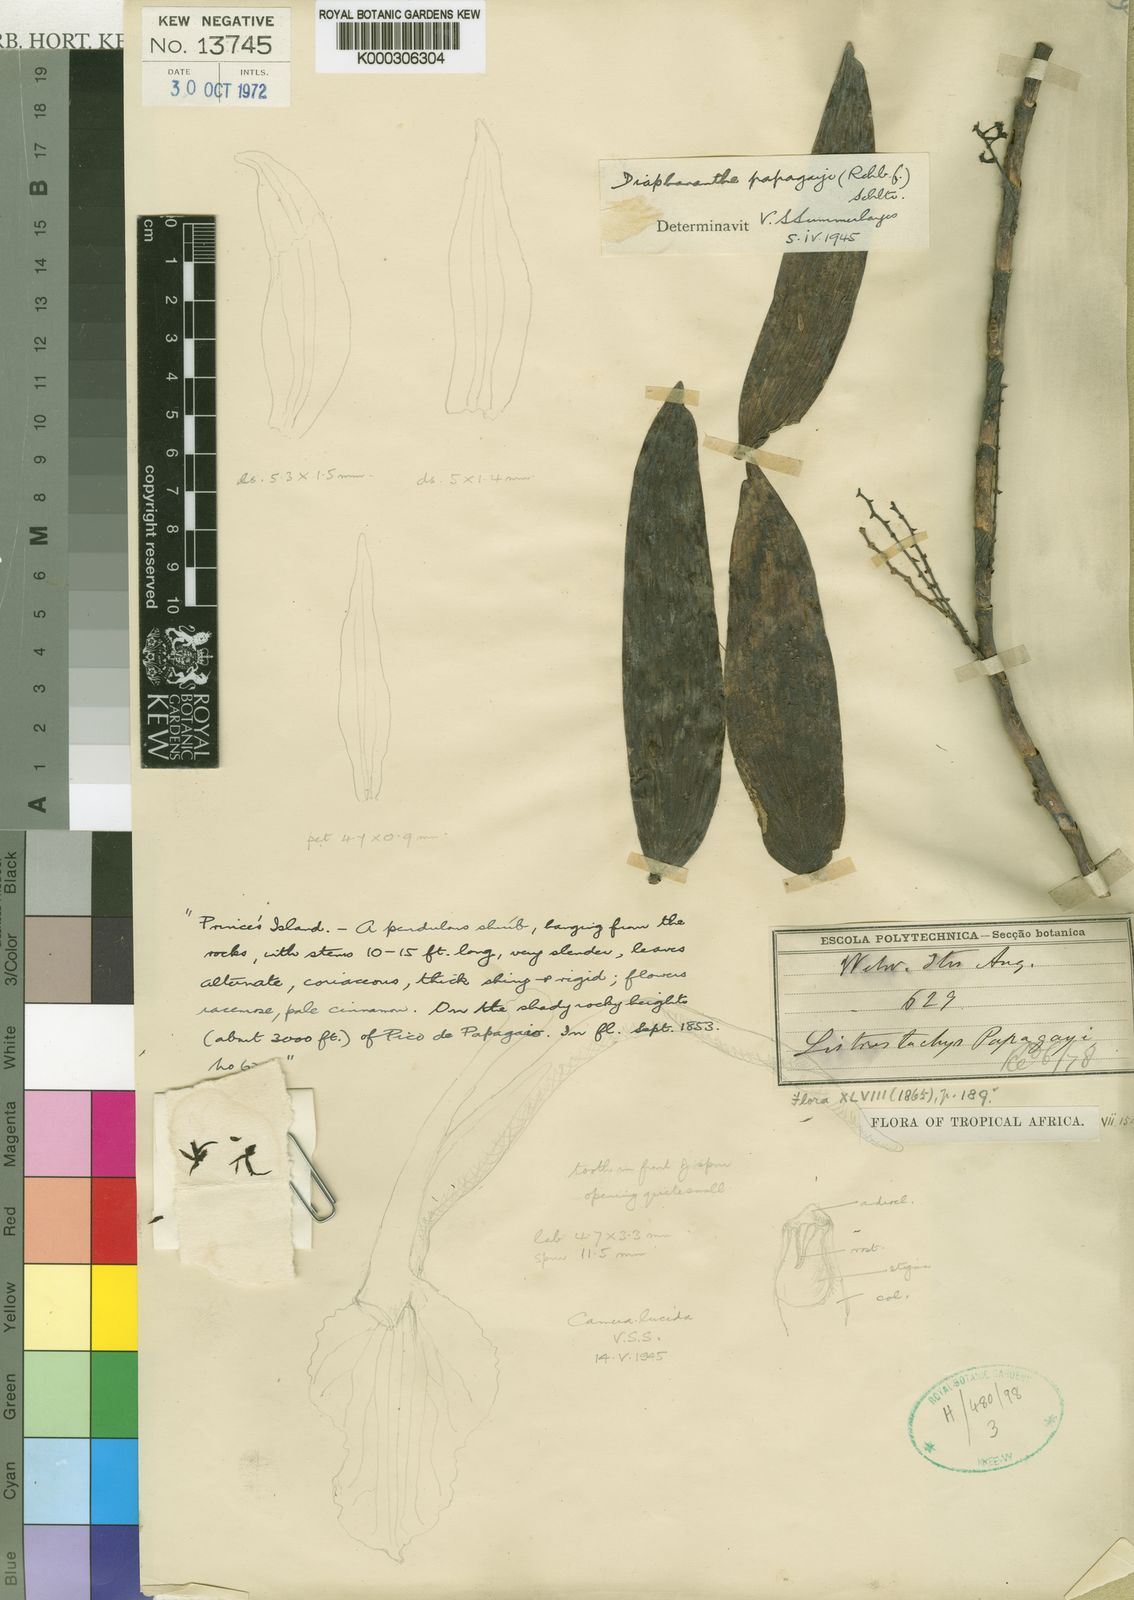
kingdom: Plantae
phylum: Tracheophyta
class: Liliopsida
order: Asparagales
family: Orchidaceae
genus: Diaphananthe
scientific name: Diaphananthe bidens
